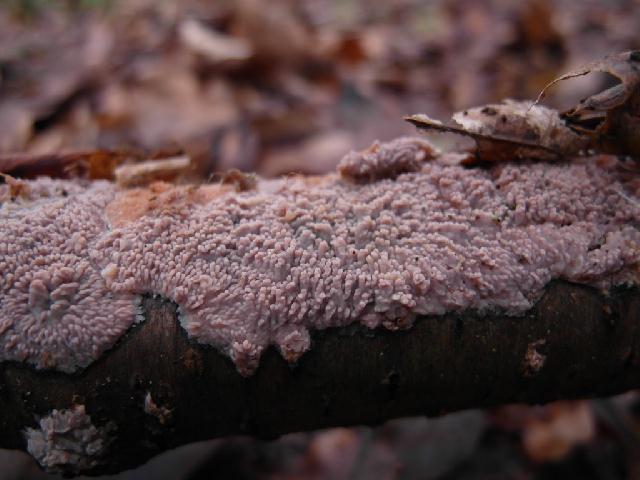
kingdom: Fungi
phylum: Basidiomycota
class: Agaricomycetes
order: Polyporales
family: Meruliaceae
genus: Phlebia
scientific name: Phlebia radiata
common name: stråle-åresvamp
